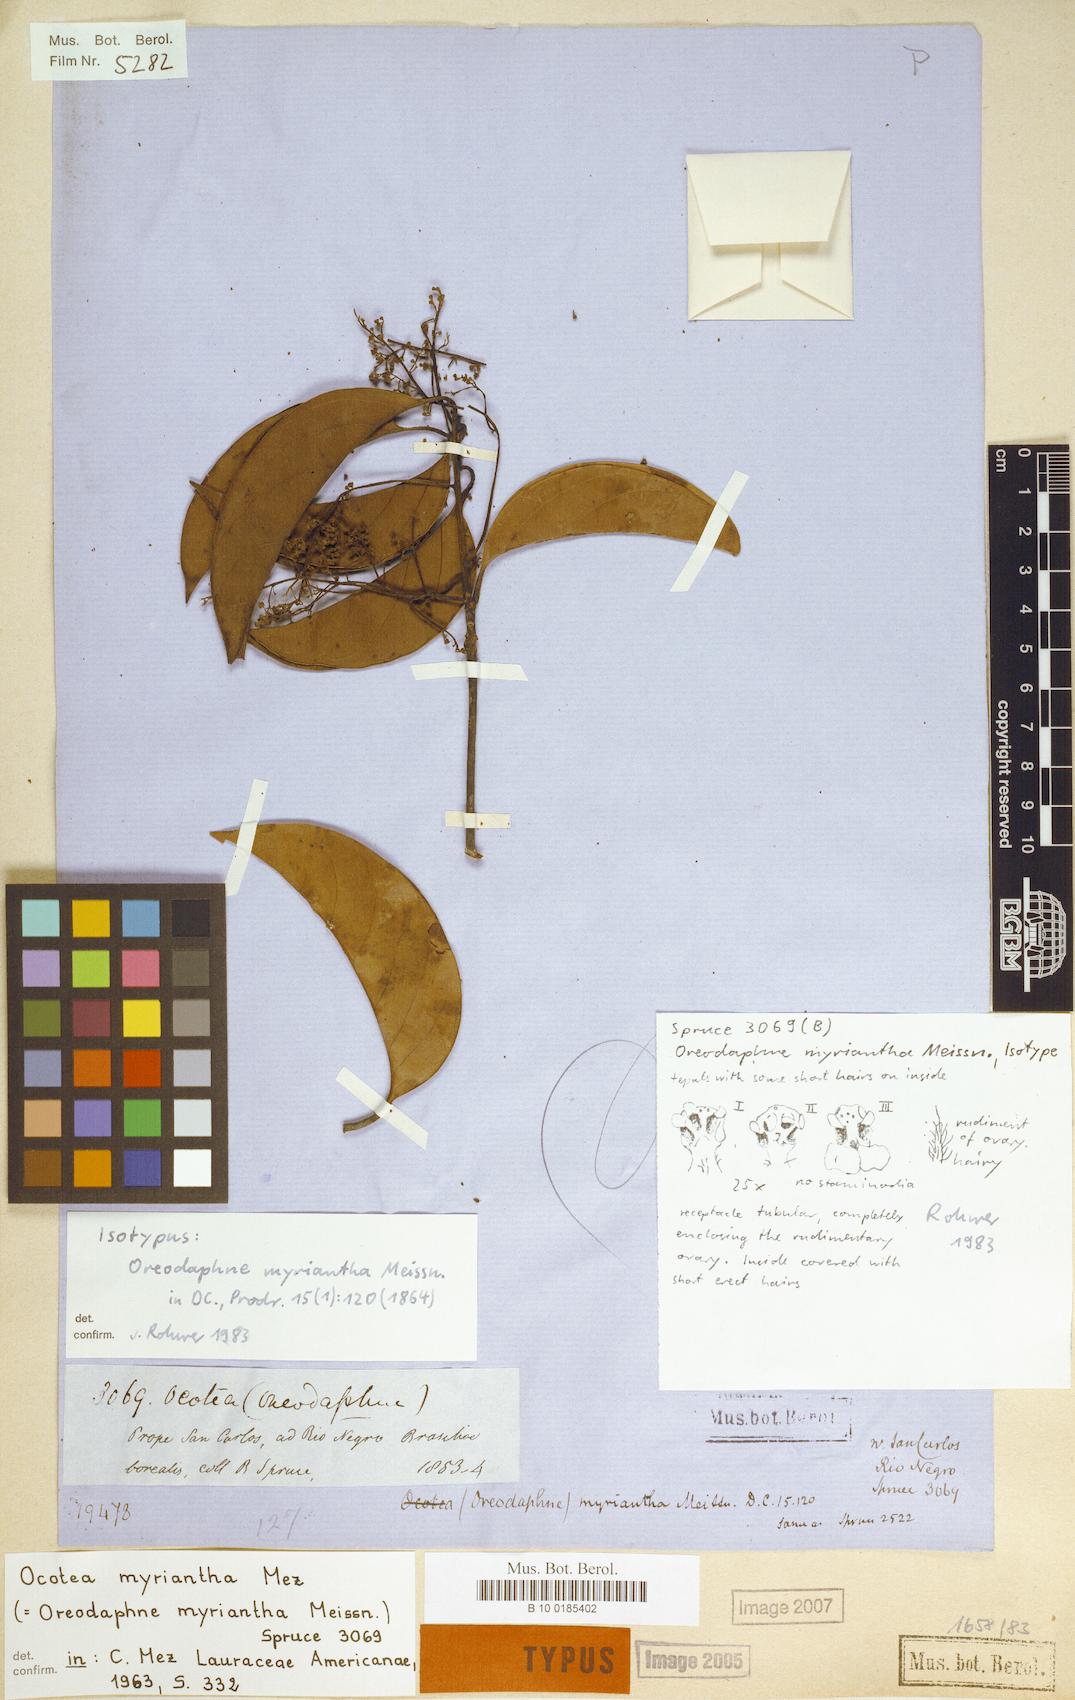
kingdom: Plantae
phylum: Tracheophyta
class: Magnoliopsida
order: Laurales
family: Lauraceae
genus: Ocotea
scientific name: Ocotea myriantha
